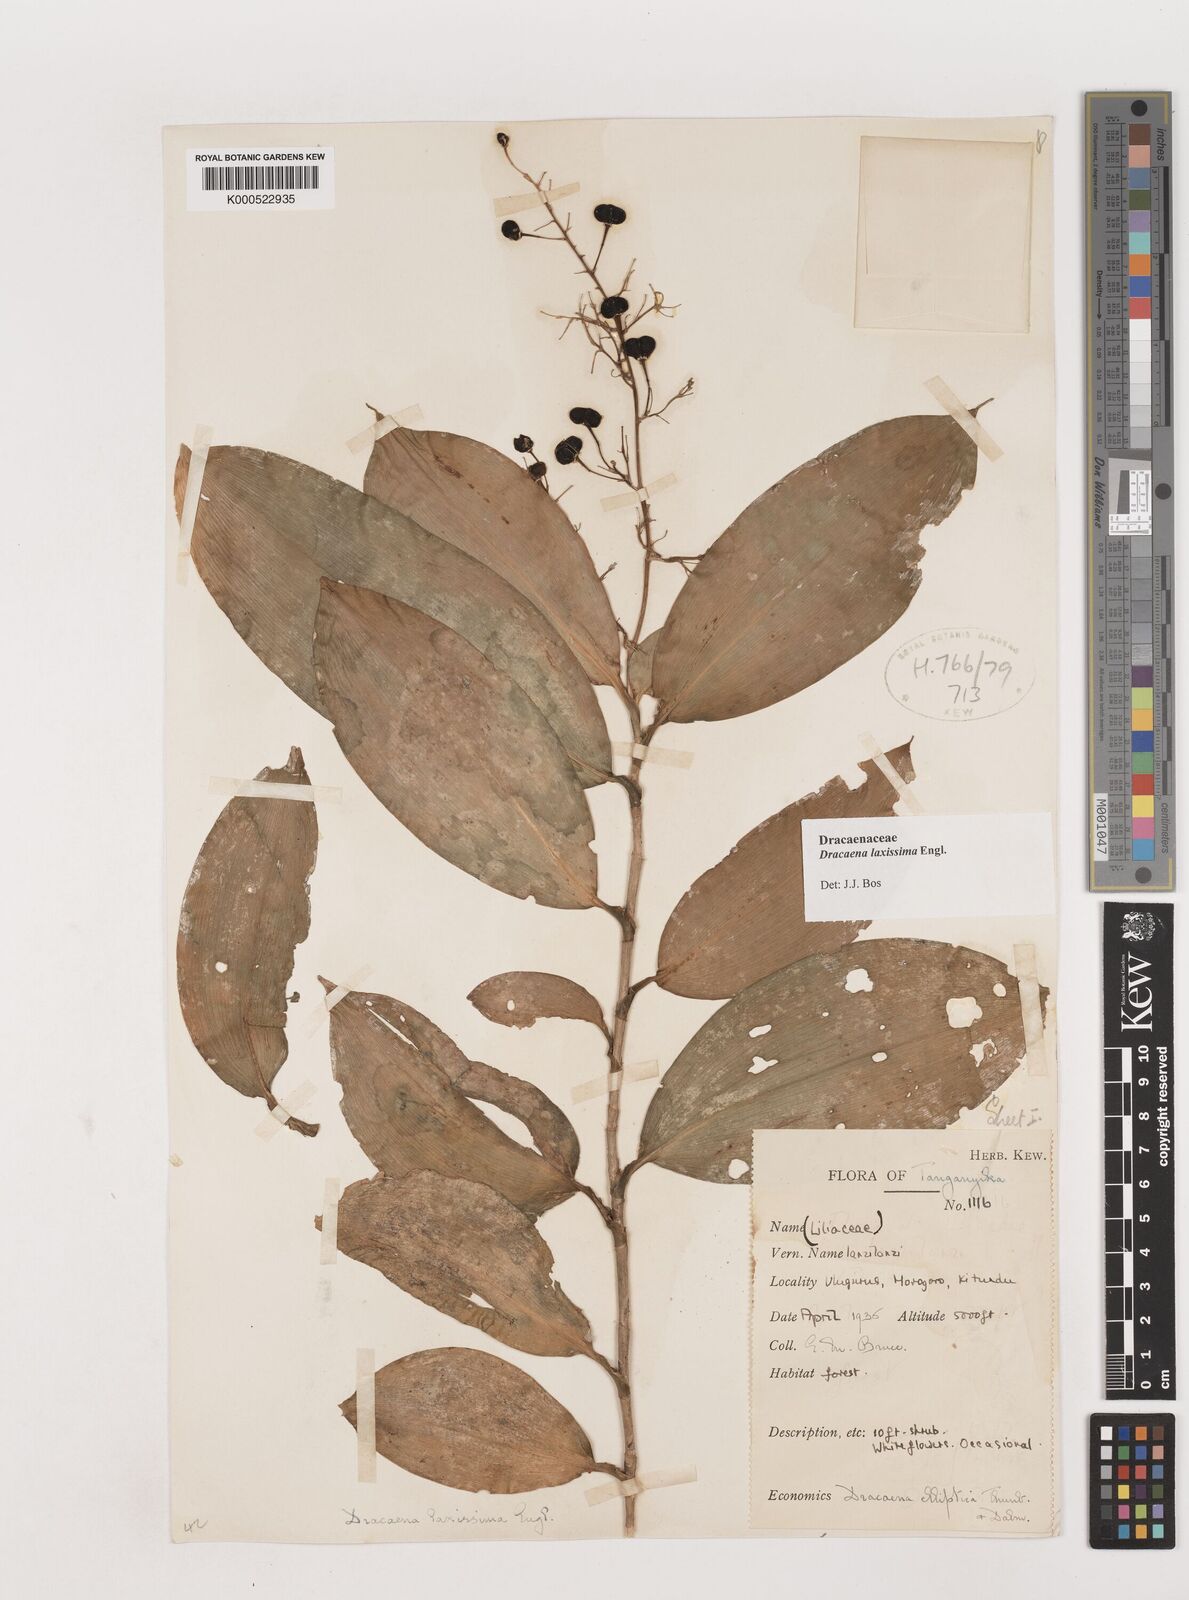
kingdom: Plantae
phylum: Tracheophyta
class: Liliopsida
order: Asparagales
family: Asparagaceae
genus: Dracaena
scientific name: Dracaena laxissima
